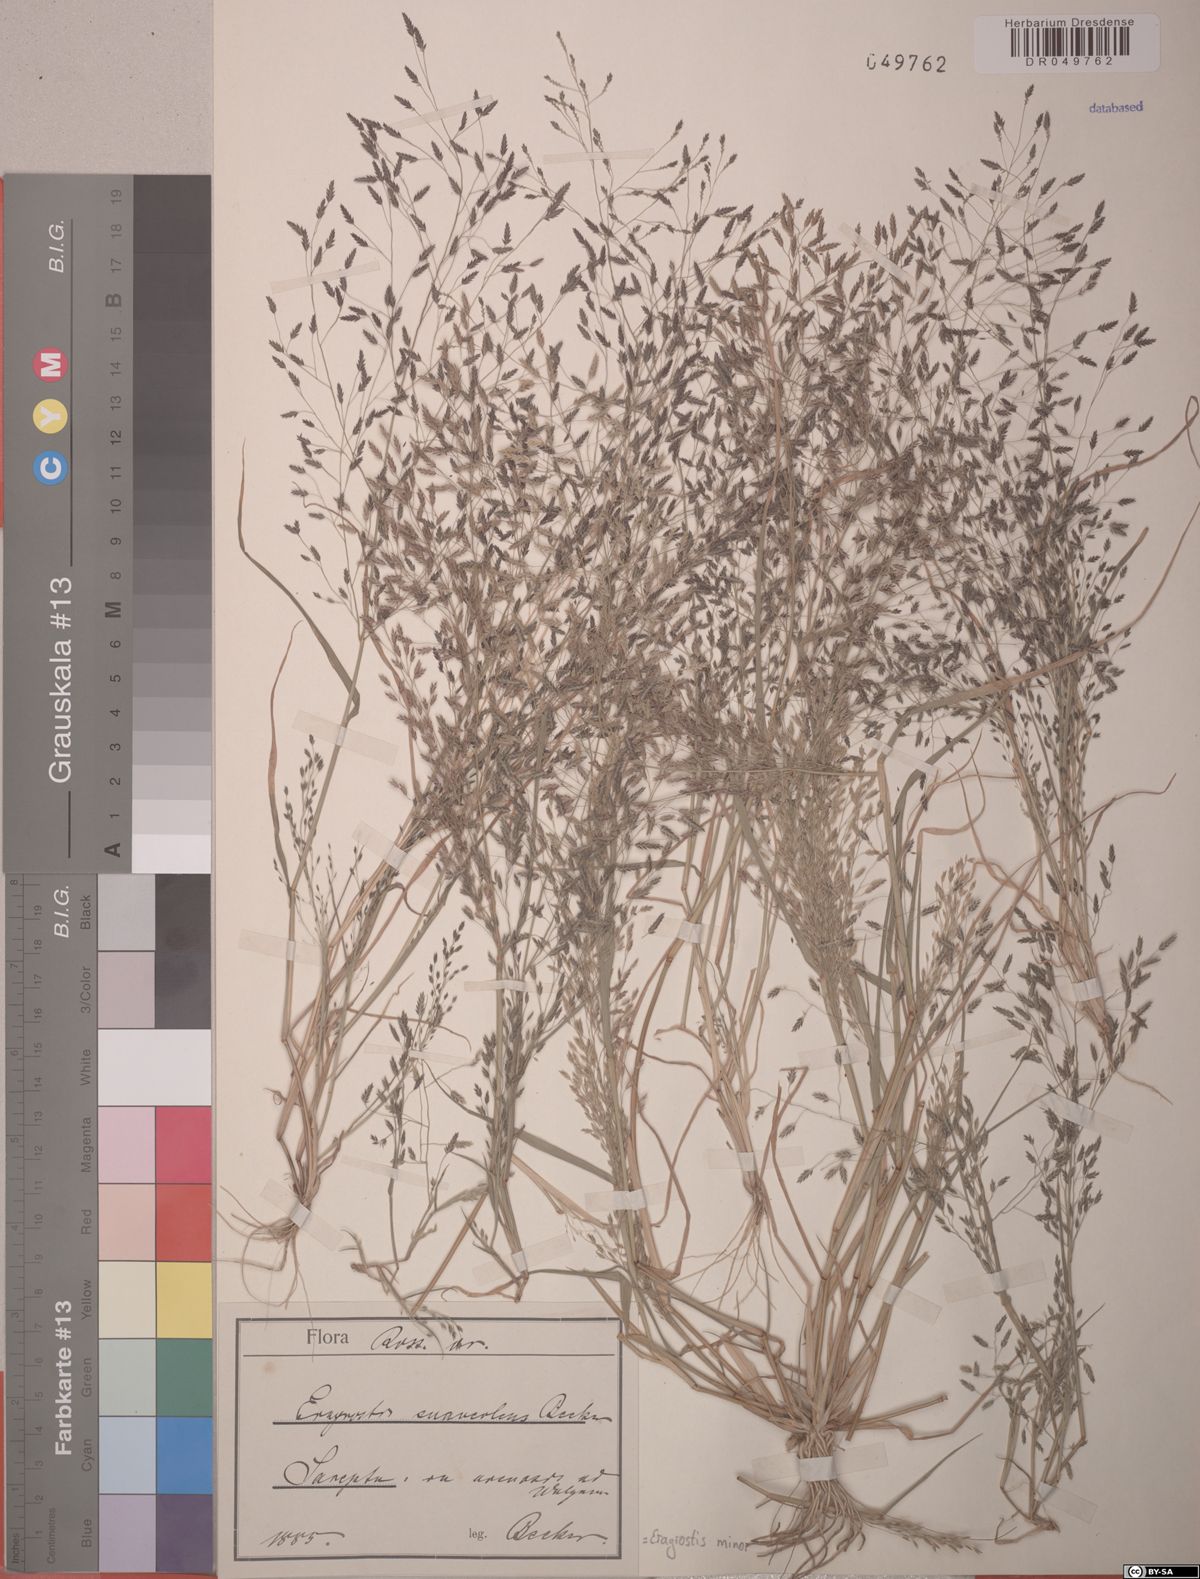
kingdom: Plantae
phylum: Tracheophyta
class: Liliopsida
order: Poales
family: Poaceae
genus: Eragrostis
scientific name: Eragrostis minor
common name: Small love-grass
